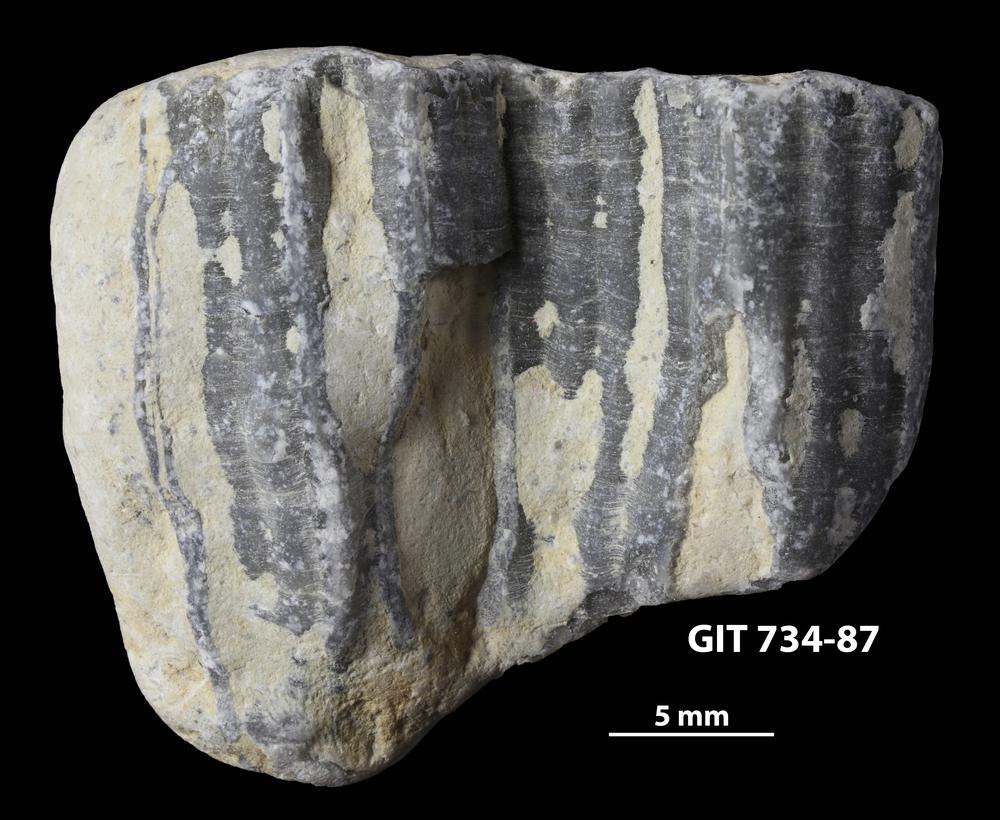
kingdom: Animalia
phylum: Cnidaria
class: Anthozoa
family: Cateniporidae
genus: Catenipora
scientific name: Catenipora
